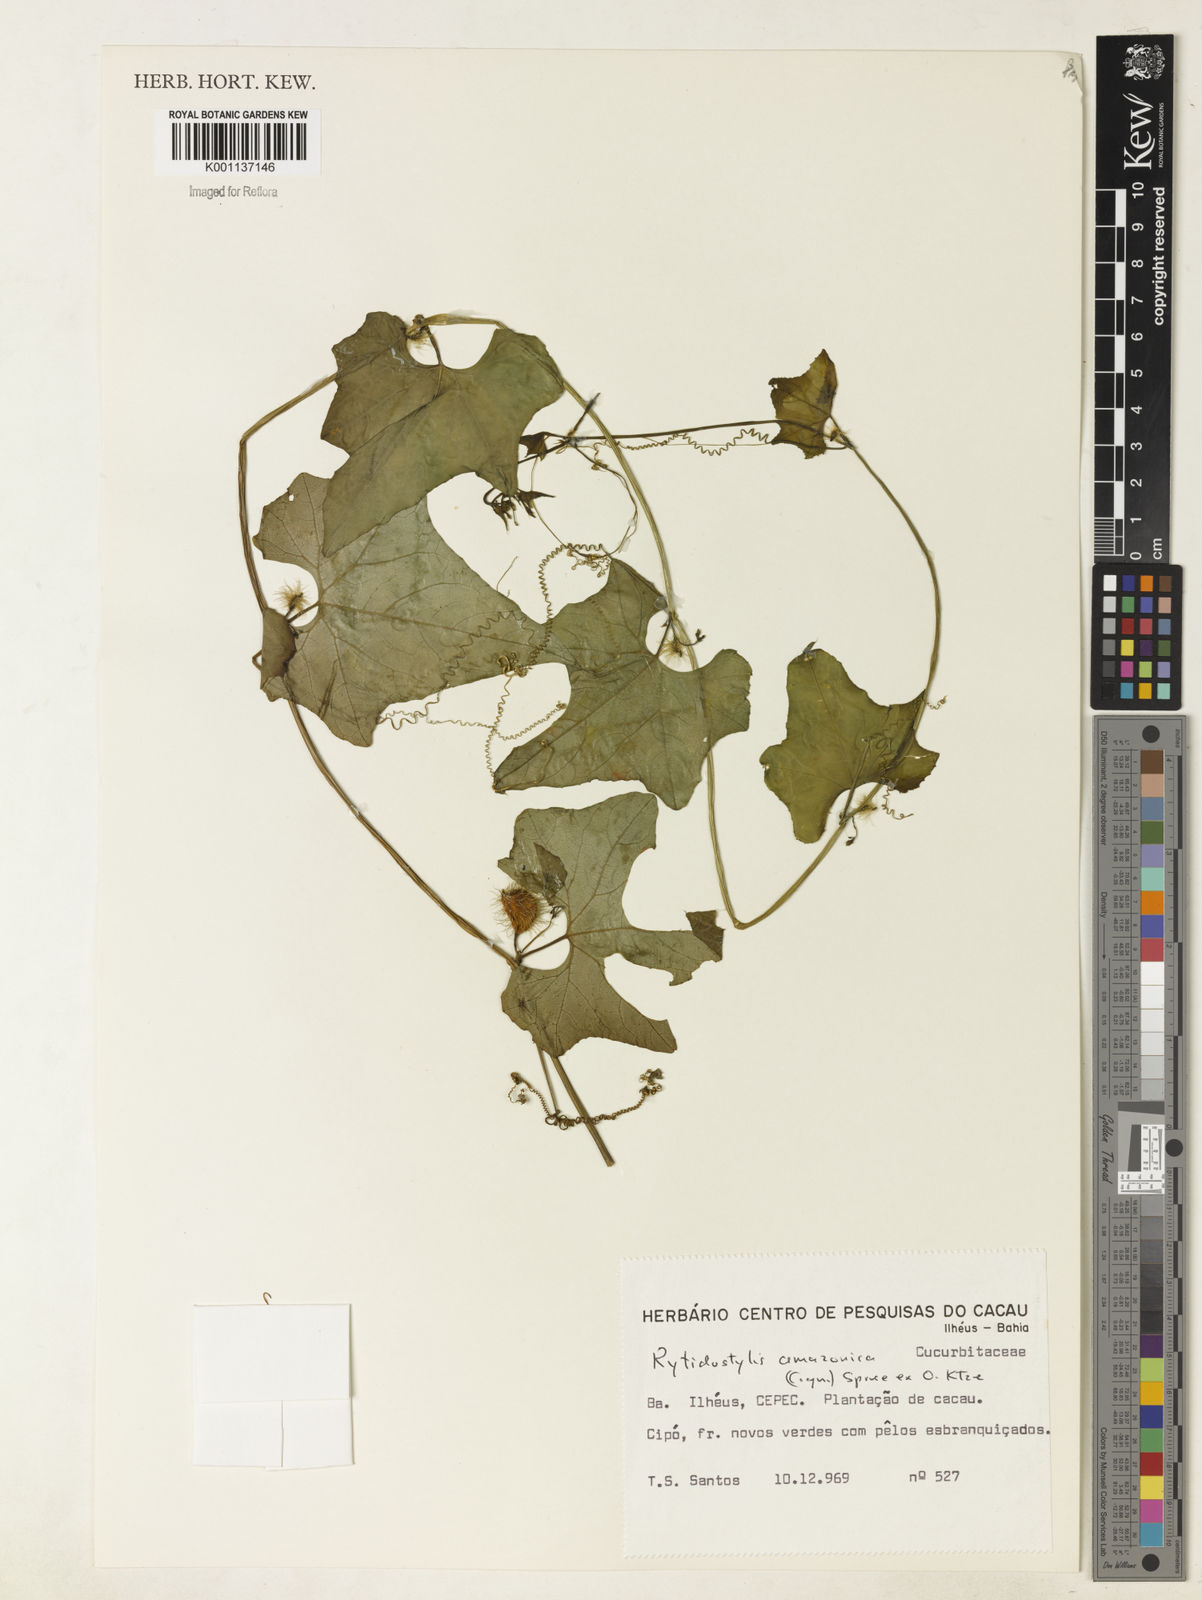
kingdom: Plantae
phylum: Tracheophyta
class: Magnoliopsida
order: Cucurbitales
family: Cucurbitaceae
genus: Cyclanthera
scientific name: Cyclanthera carthagenensis
